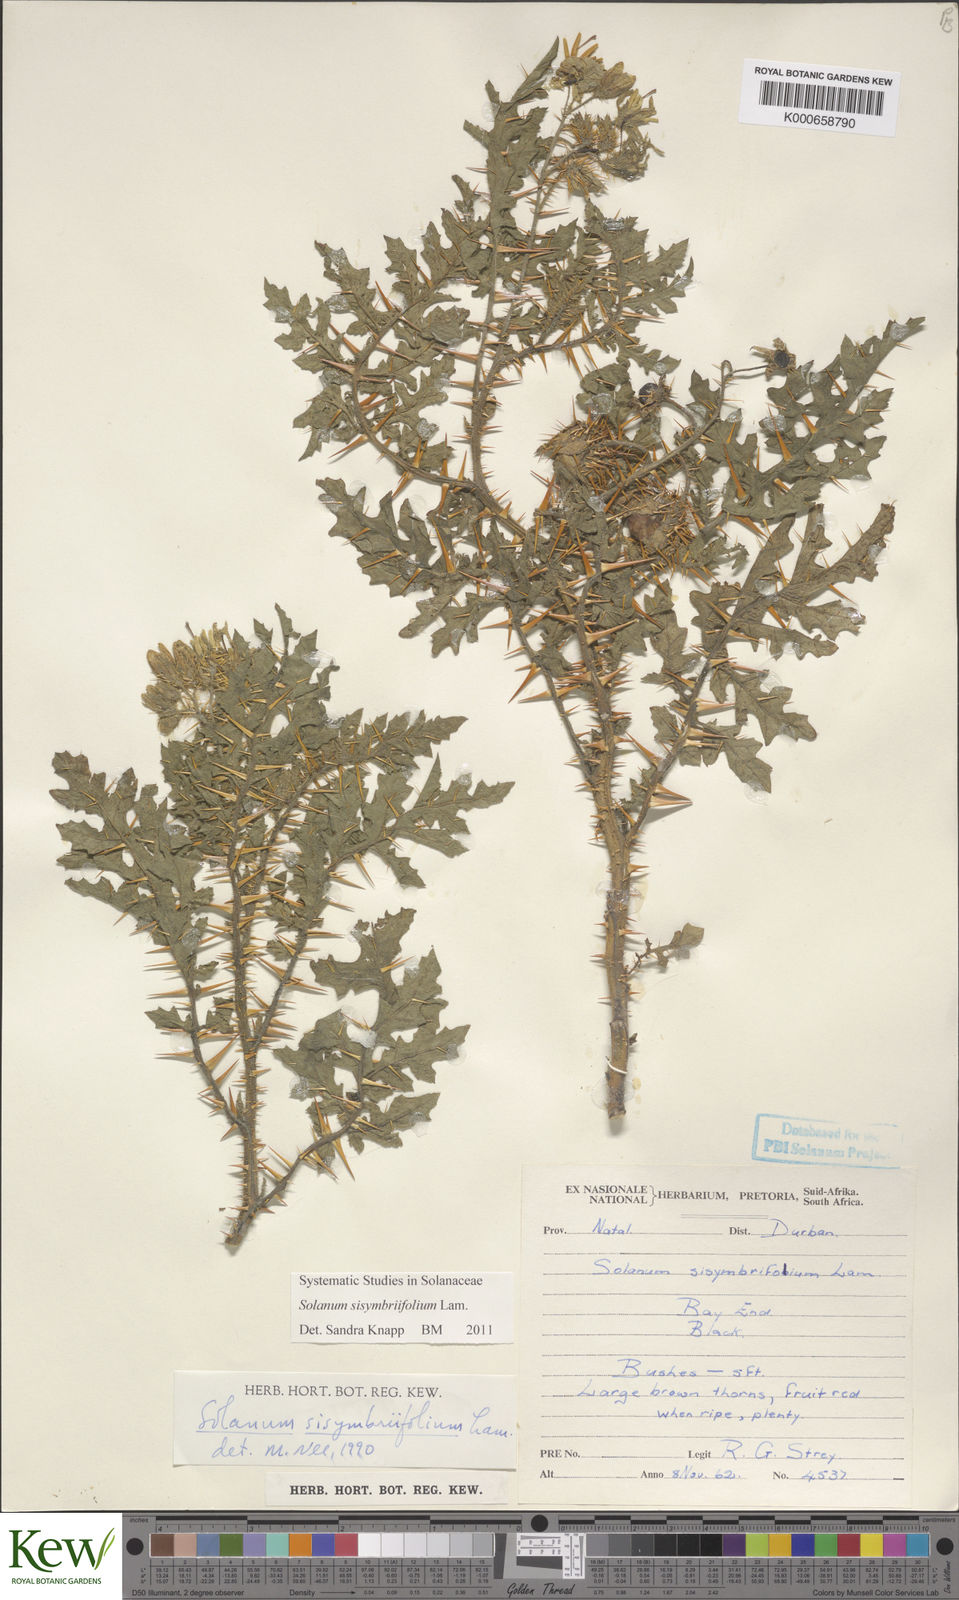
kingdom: Plantae
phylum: Tracheophyta
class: Magnoliopsida
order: Solanales
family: Solanaceae
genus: Solanum
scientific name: Solanum sisymbriifolium
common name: Red buffalo-bur
